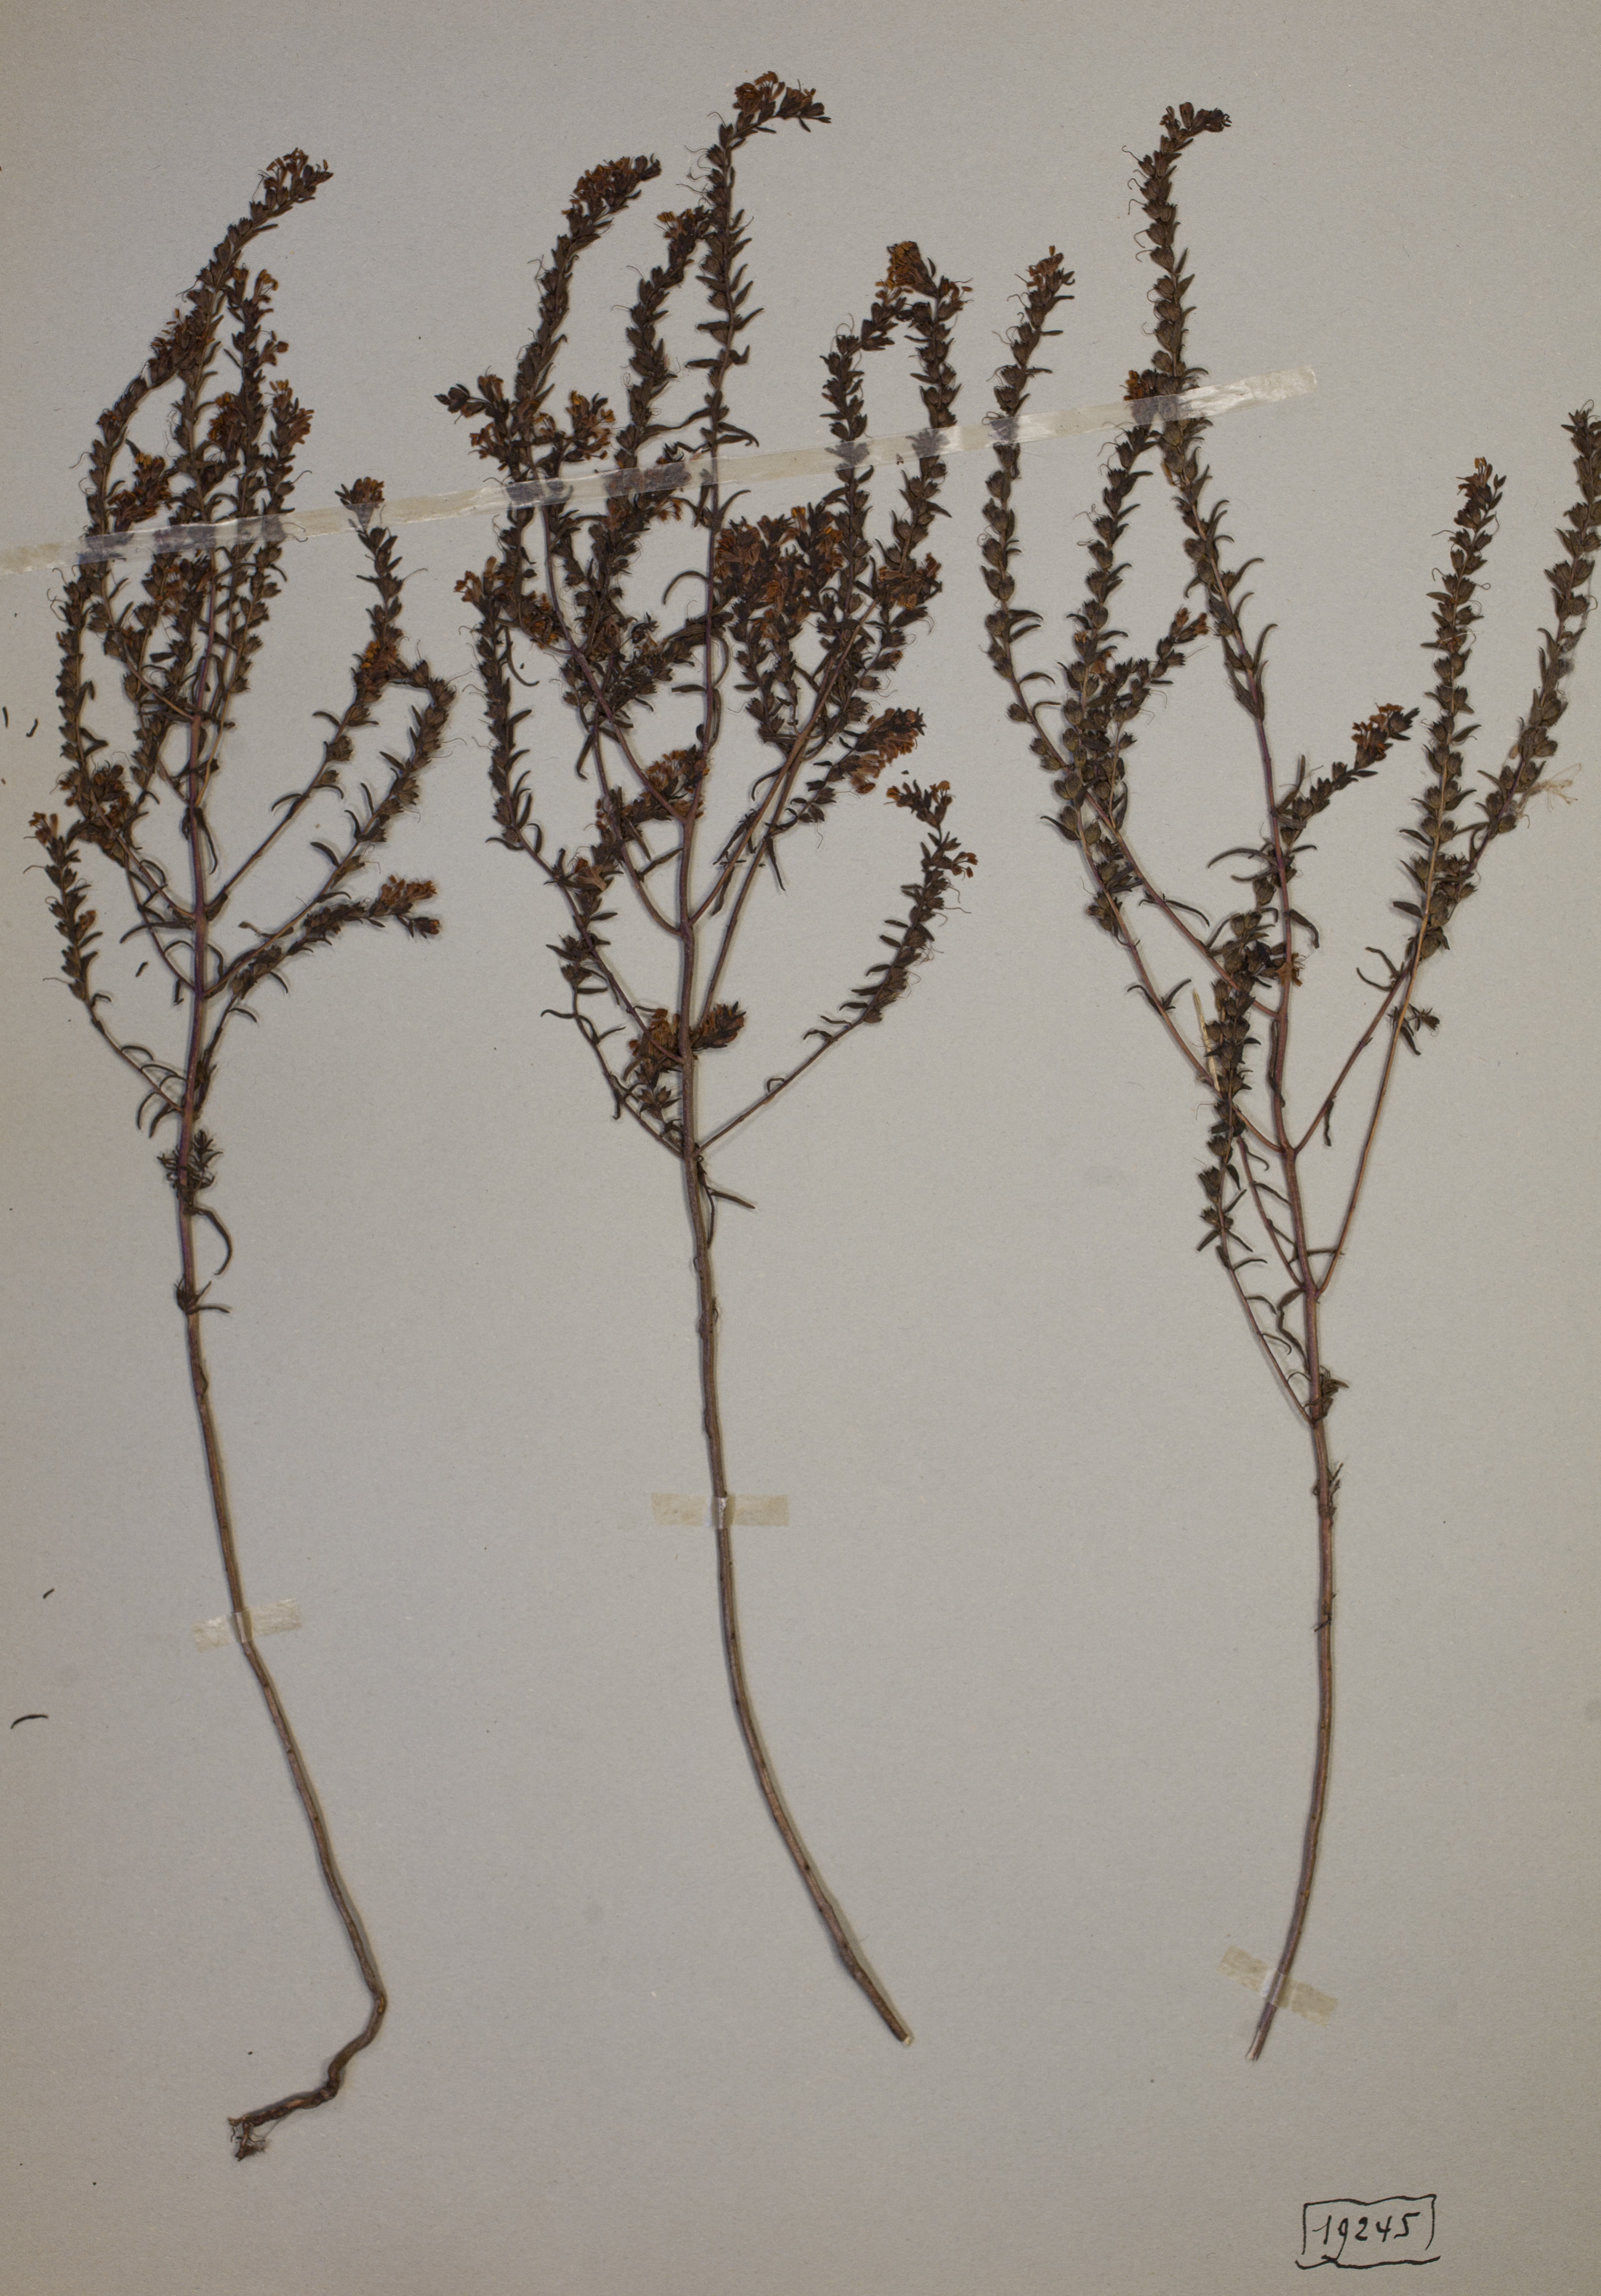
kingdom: Plantae
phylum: Tracheophyta
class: Magnoliopsida
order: Lamiales
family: Orobanchaceae
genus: Odontites
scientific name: Odontites luteus
